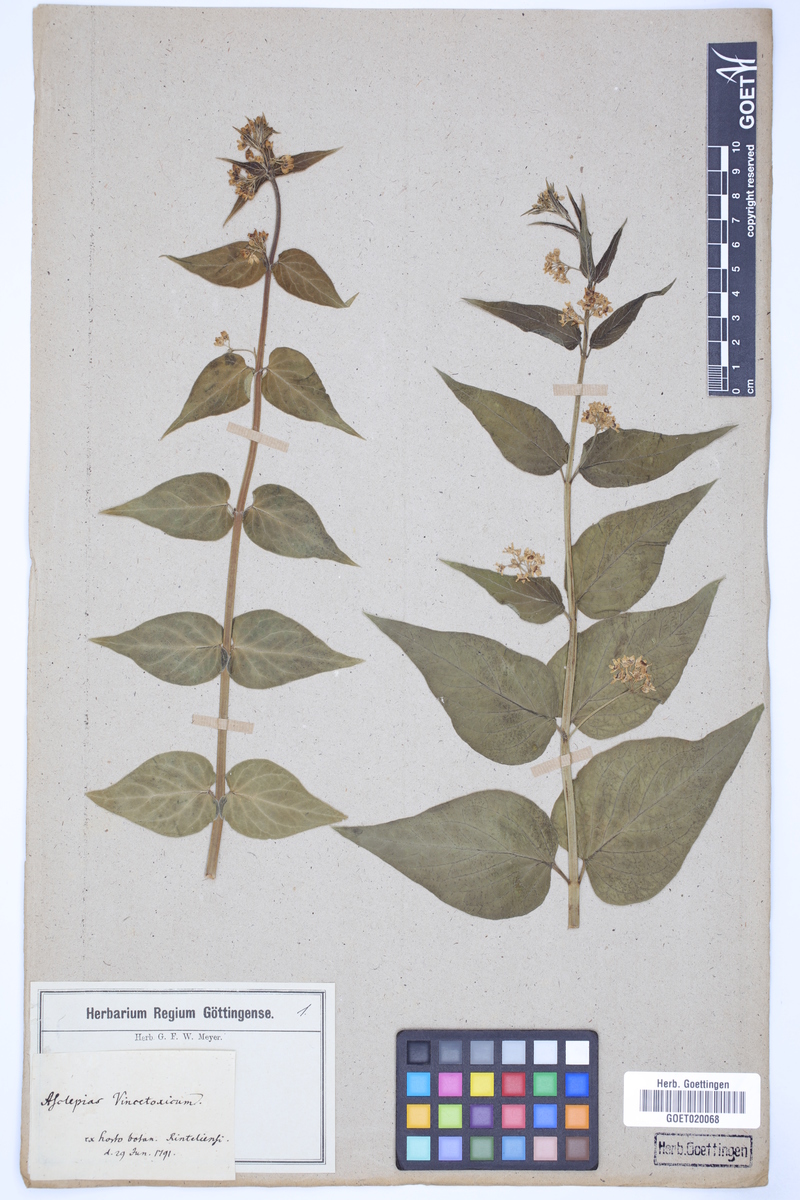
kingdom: Plantae
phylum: Tracheophyta
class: Magnoliopsida
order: Gentianales
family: Apocynaceae
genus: Vincetoxicum
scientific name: Vincetoxicum hirundinaria
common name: White swallowwort
